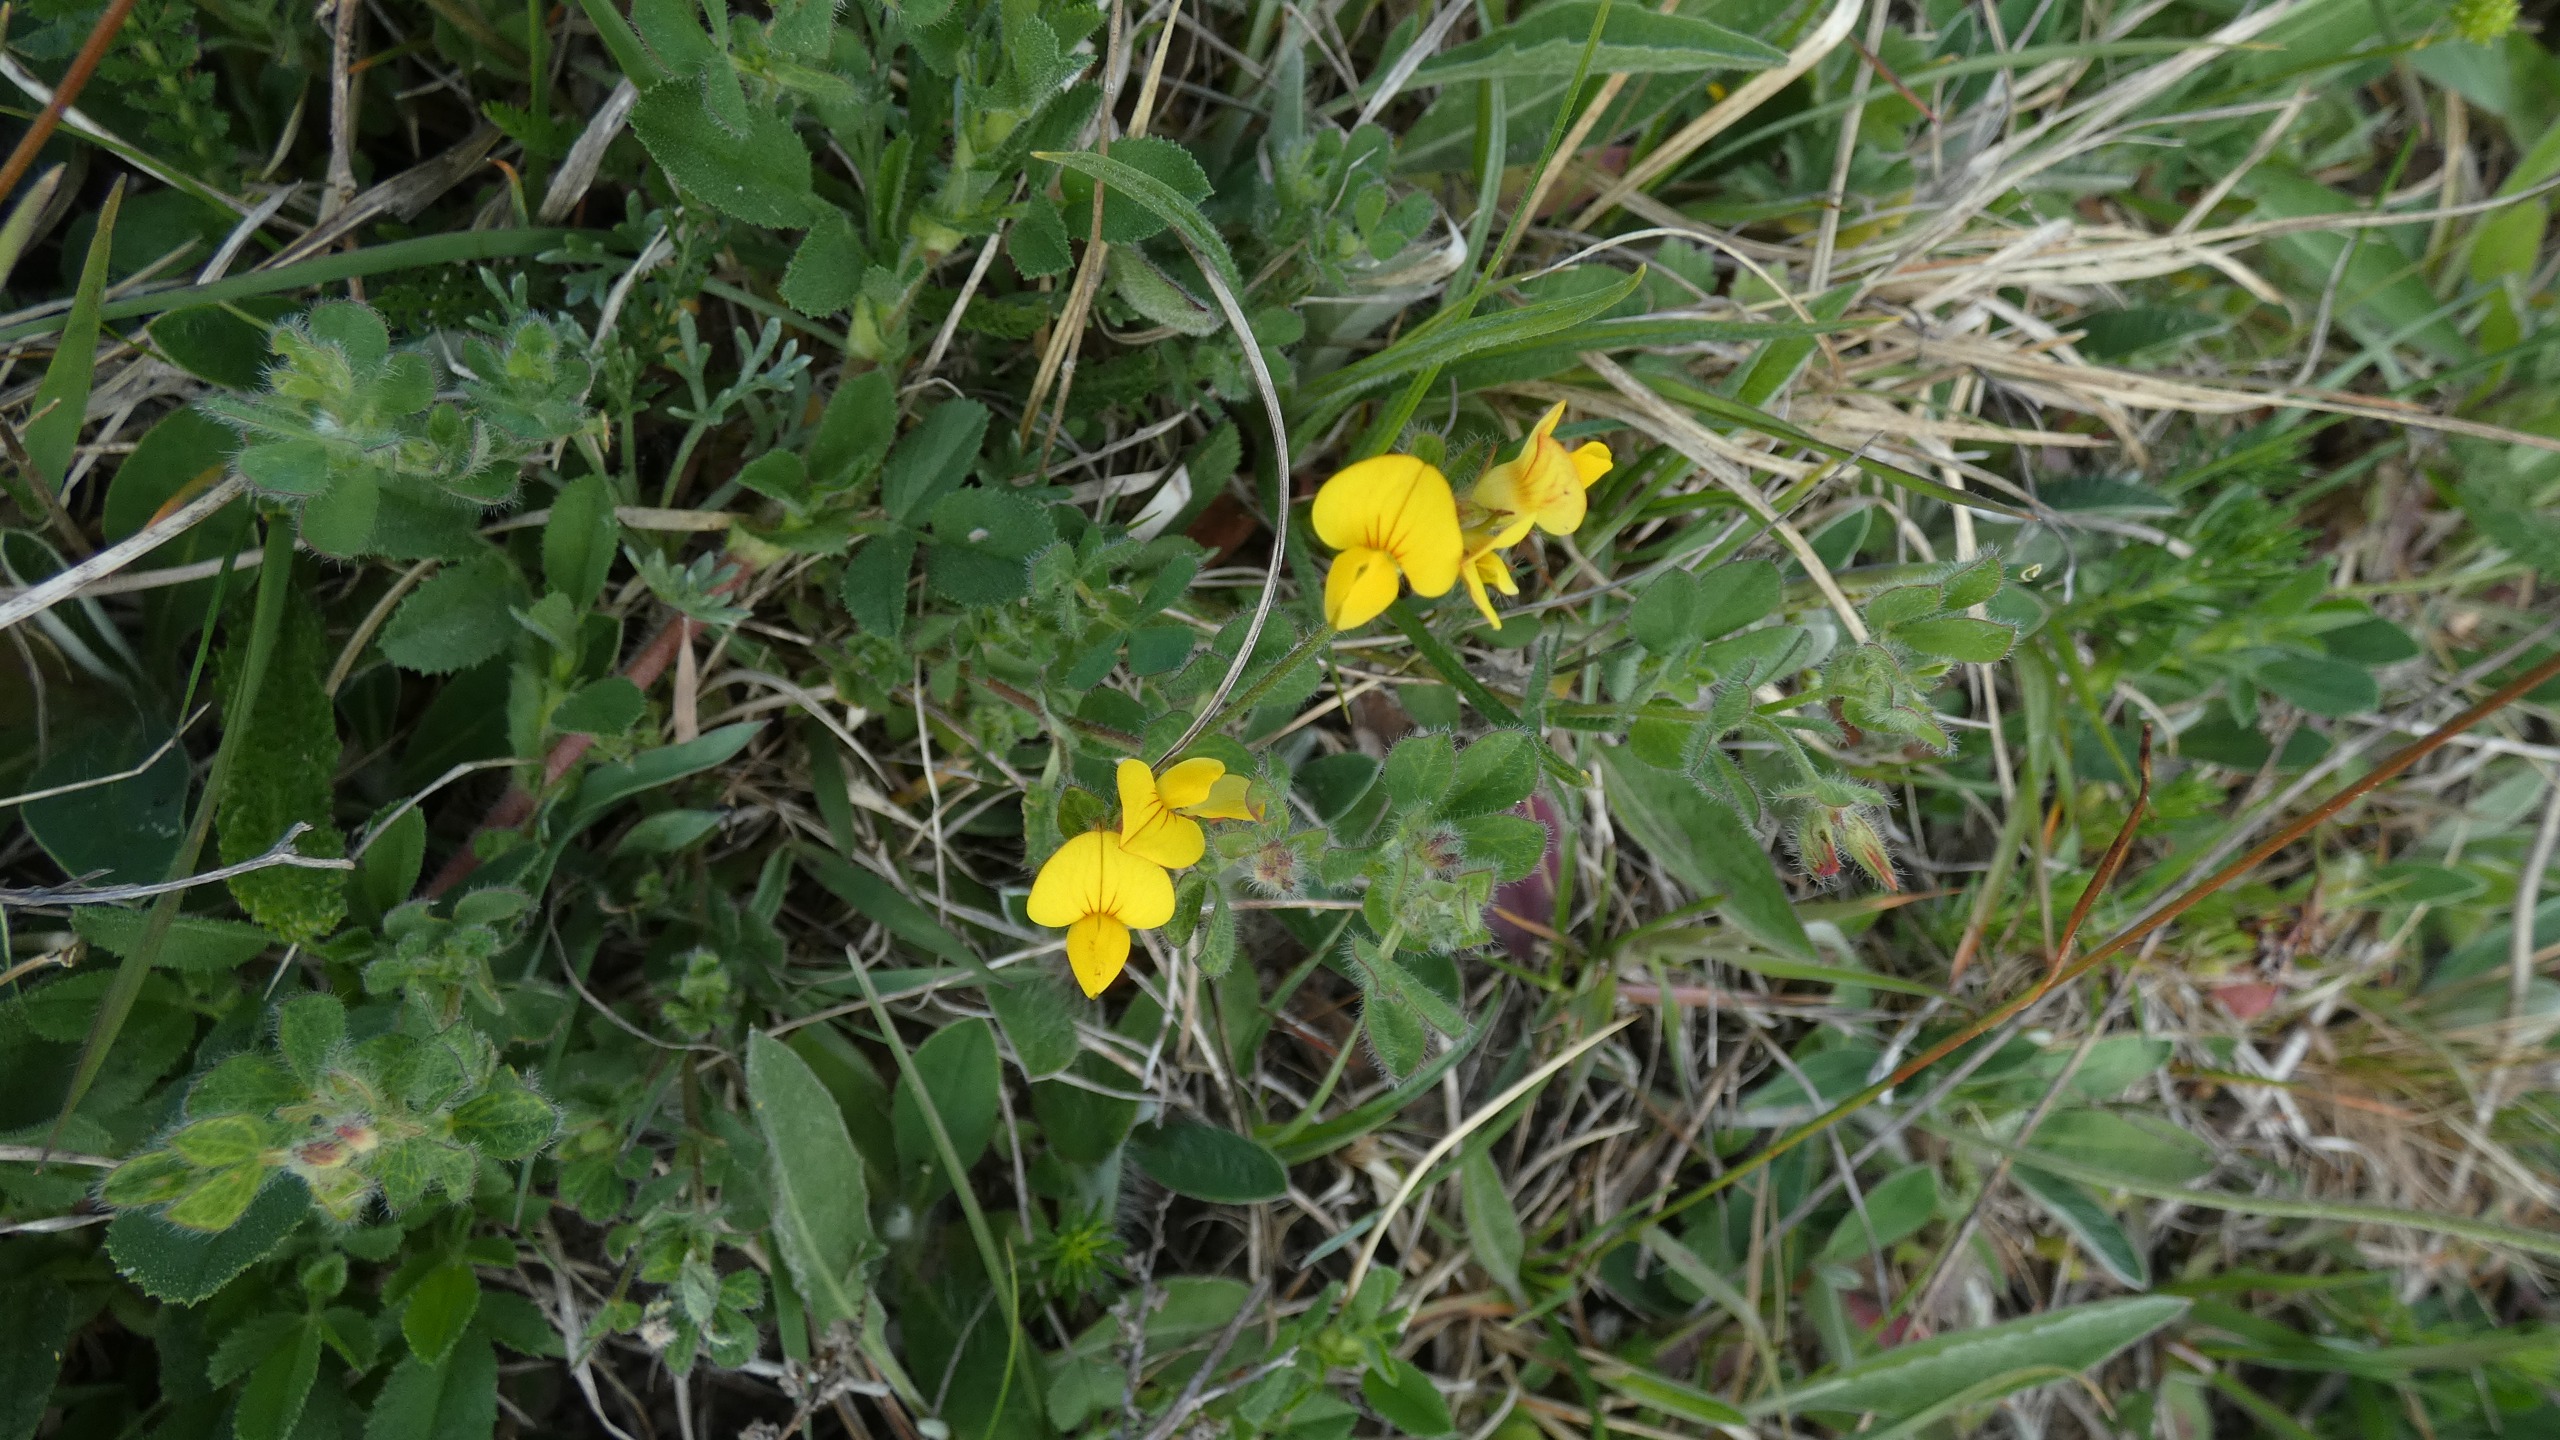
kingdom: Plantae
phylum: Tracheophyta
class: Magnoliopsida
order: Fabales
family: Fabaceae
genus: Lotus
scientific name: Lotus corniculatus
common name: Almindelig kællingetand
